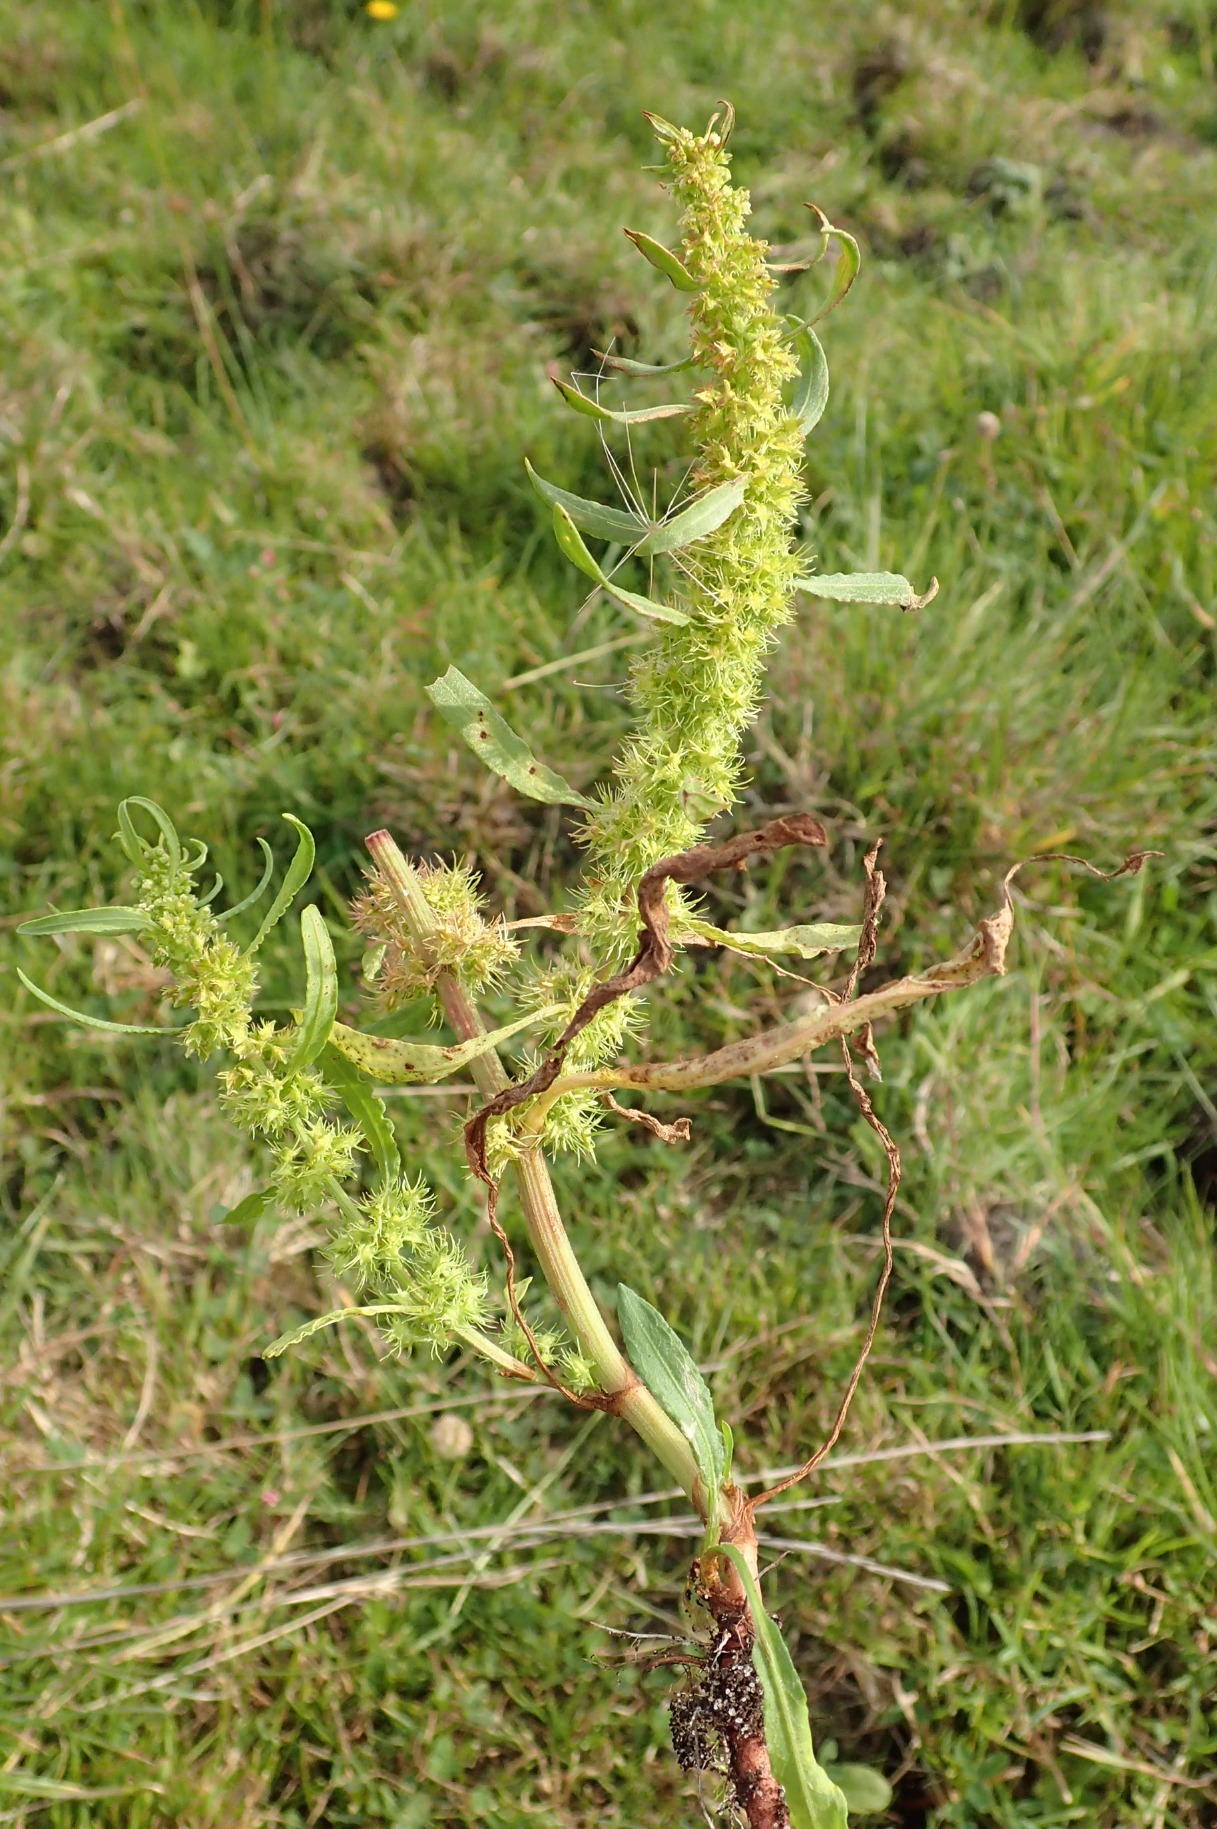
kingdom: Plantae
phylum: Tracheophyta
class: Magnoliopsida
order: Caryophyllales
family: Polygonaceae
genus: Rumex
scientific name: Rumex maritimus
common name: Strand-skræppe
